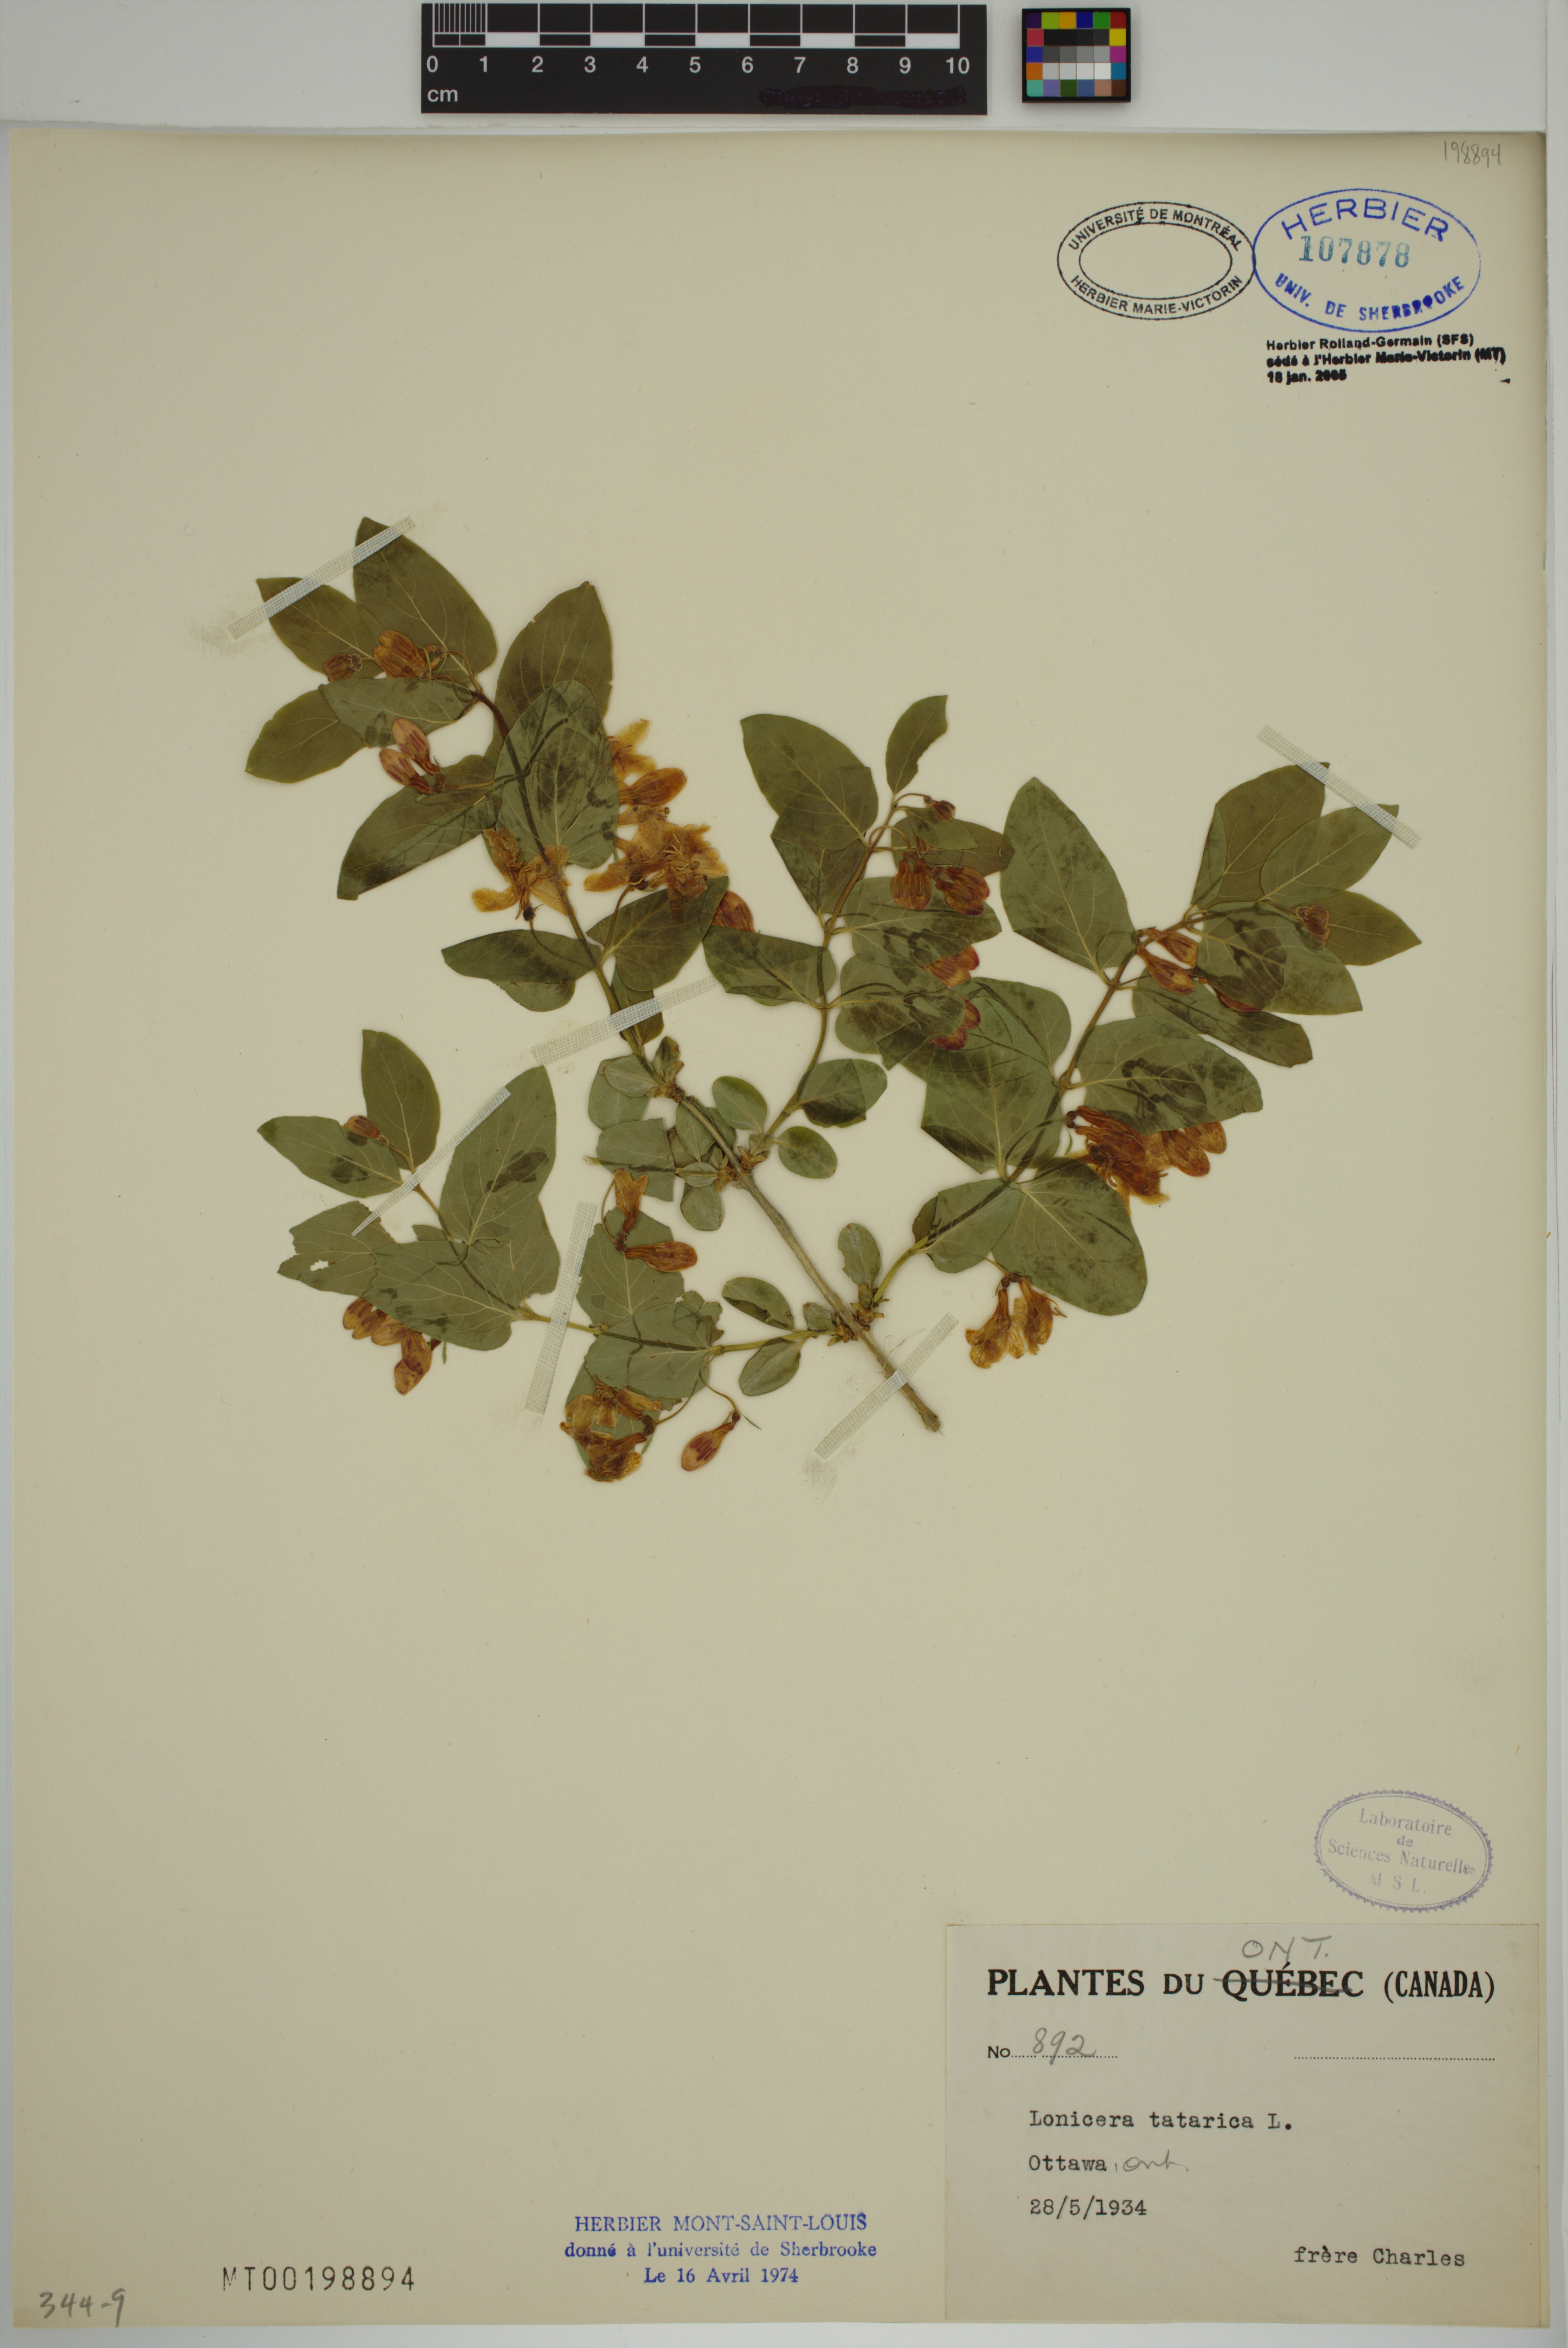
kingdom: Plantae
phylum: Tracheophyta
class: Magnoliopsida
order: Dipsacales
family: Caprifoliaceae
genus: Lonicera
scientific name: Lonicera tatarica
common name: Tatarian honeysuckle
